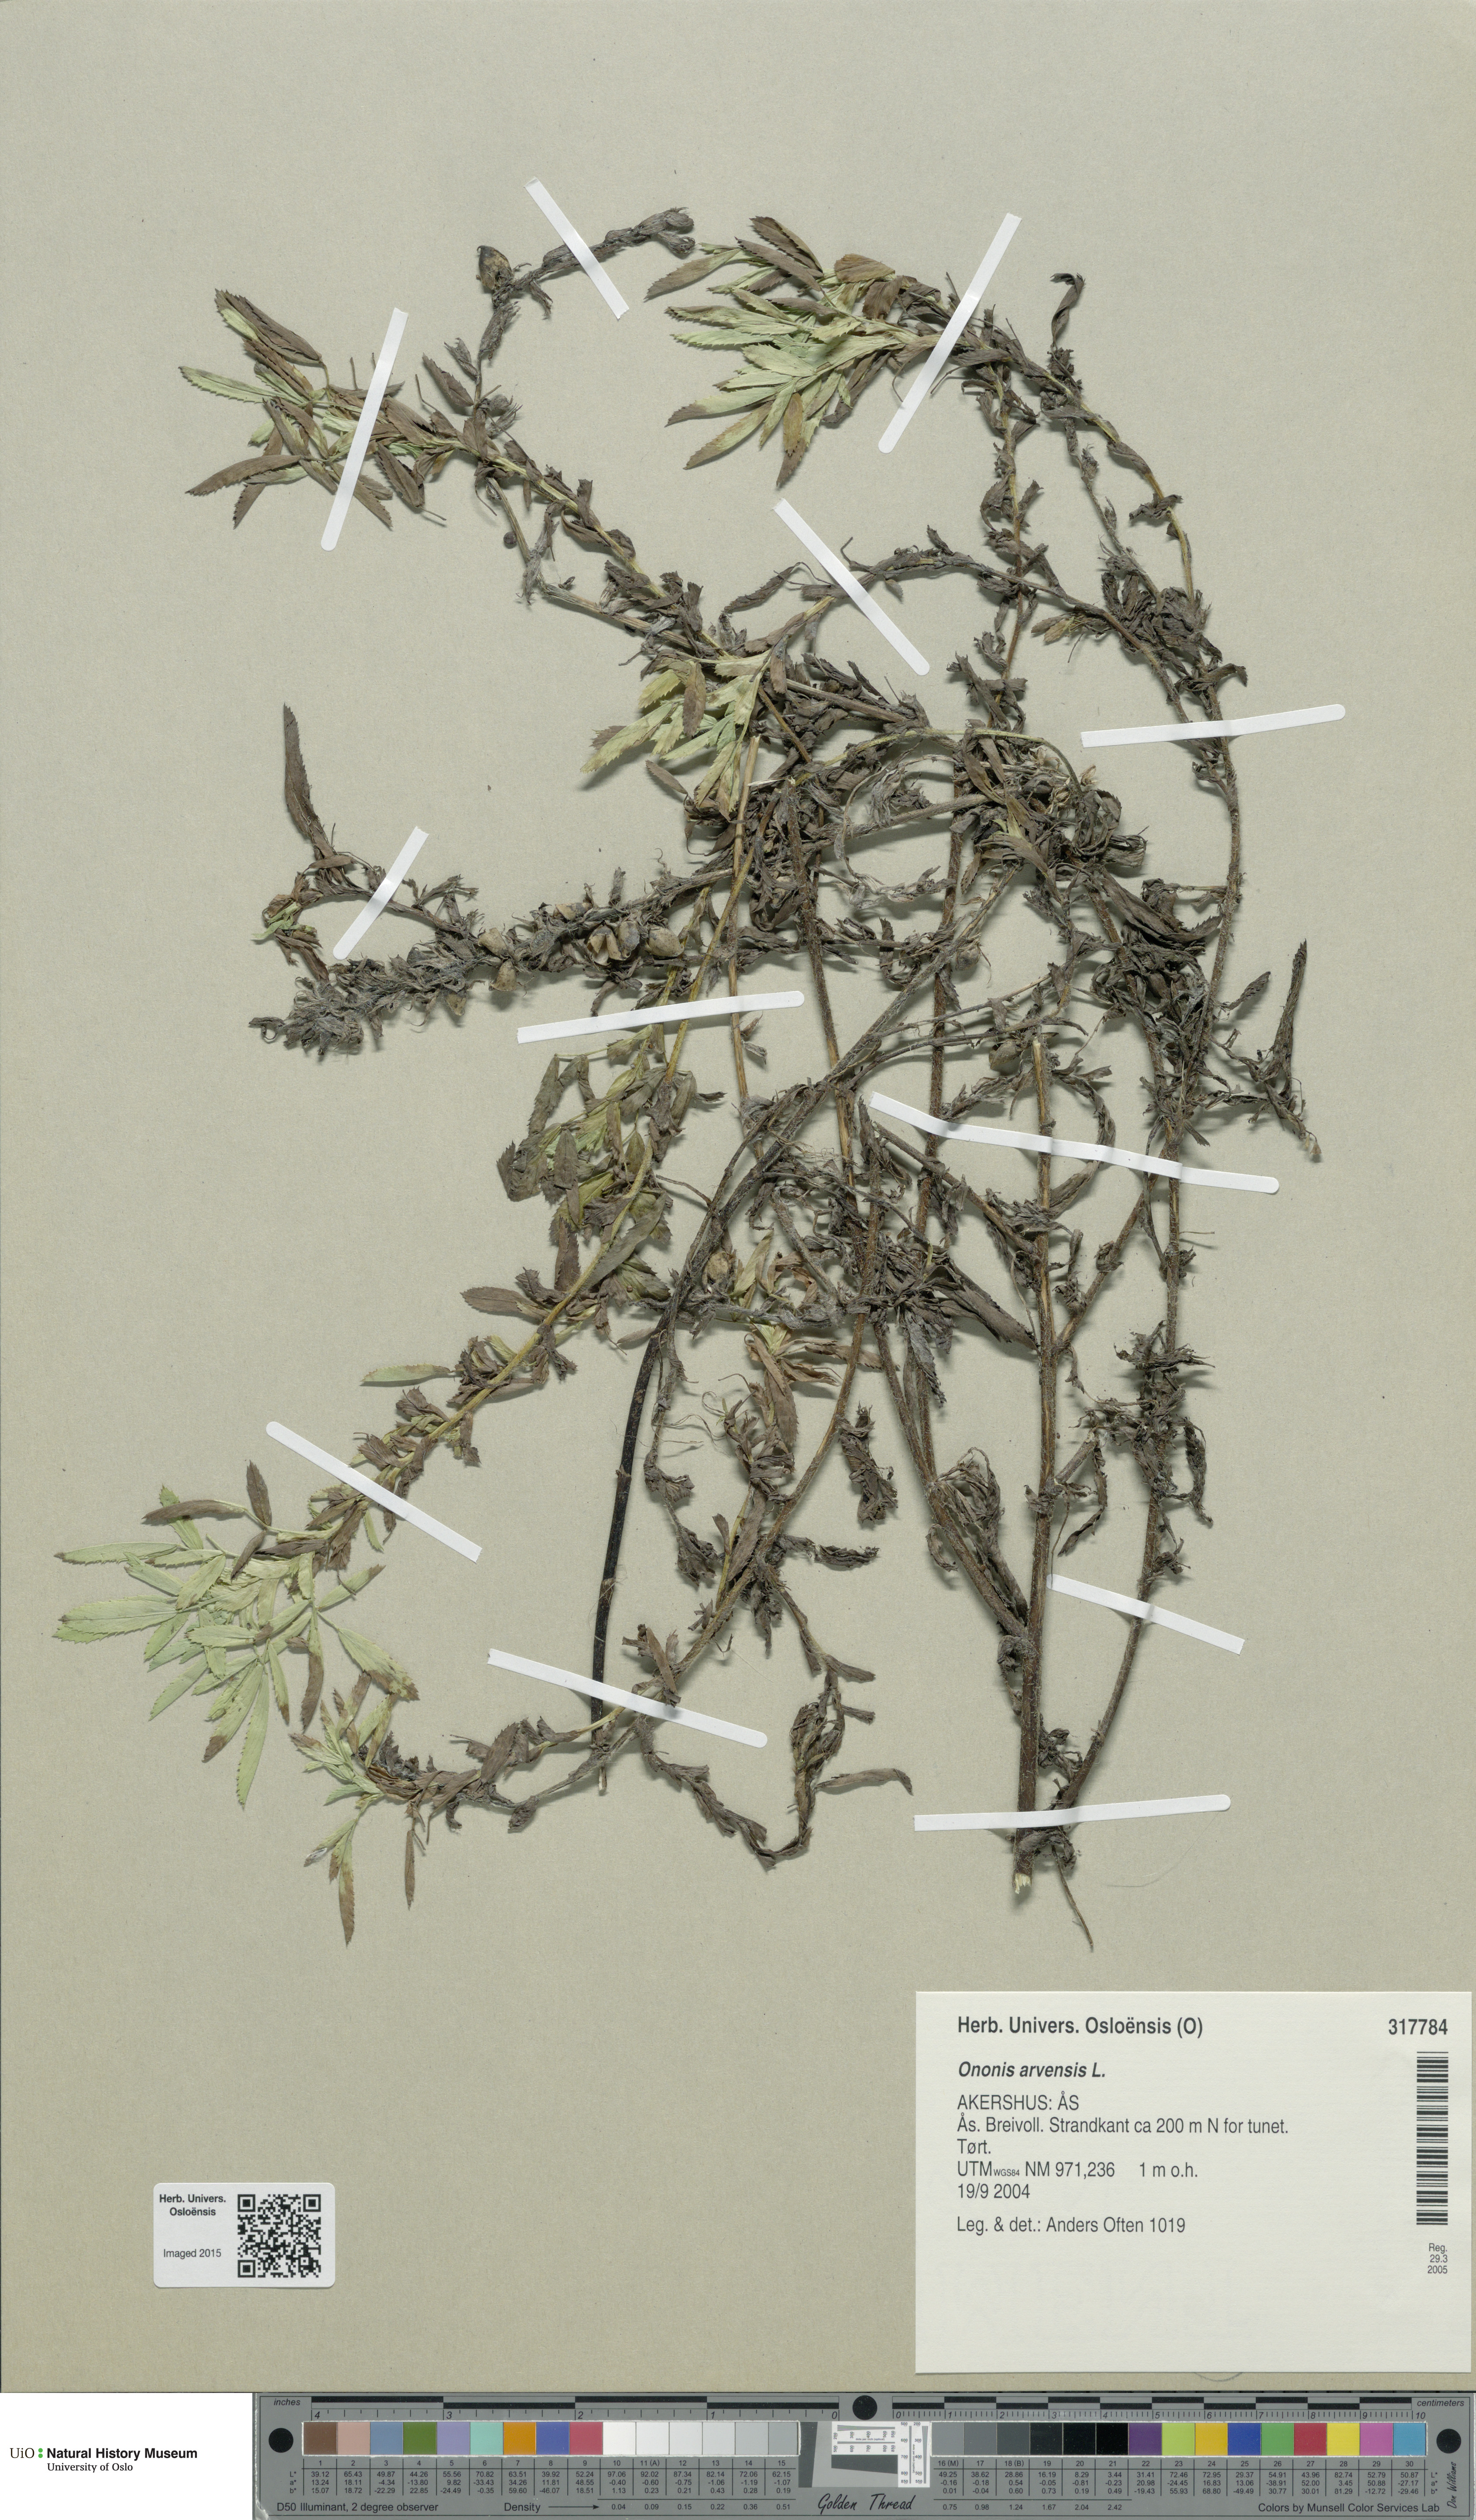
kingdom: Plantae
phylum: Tracheophyta
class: Magnoliopsida
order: Fabales
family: Fabaceae
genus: Ononis
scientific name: Ononis arvensis
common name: Field restharrow
